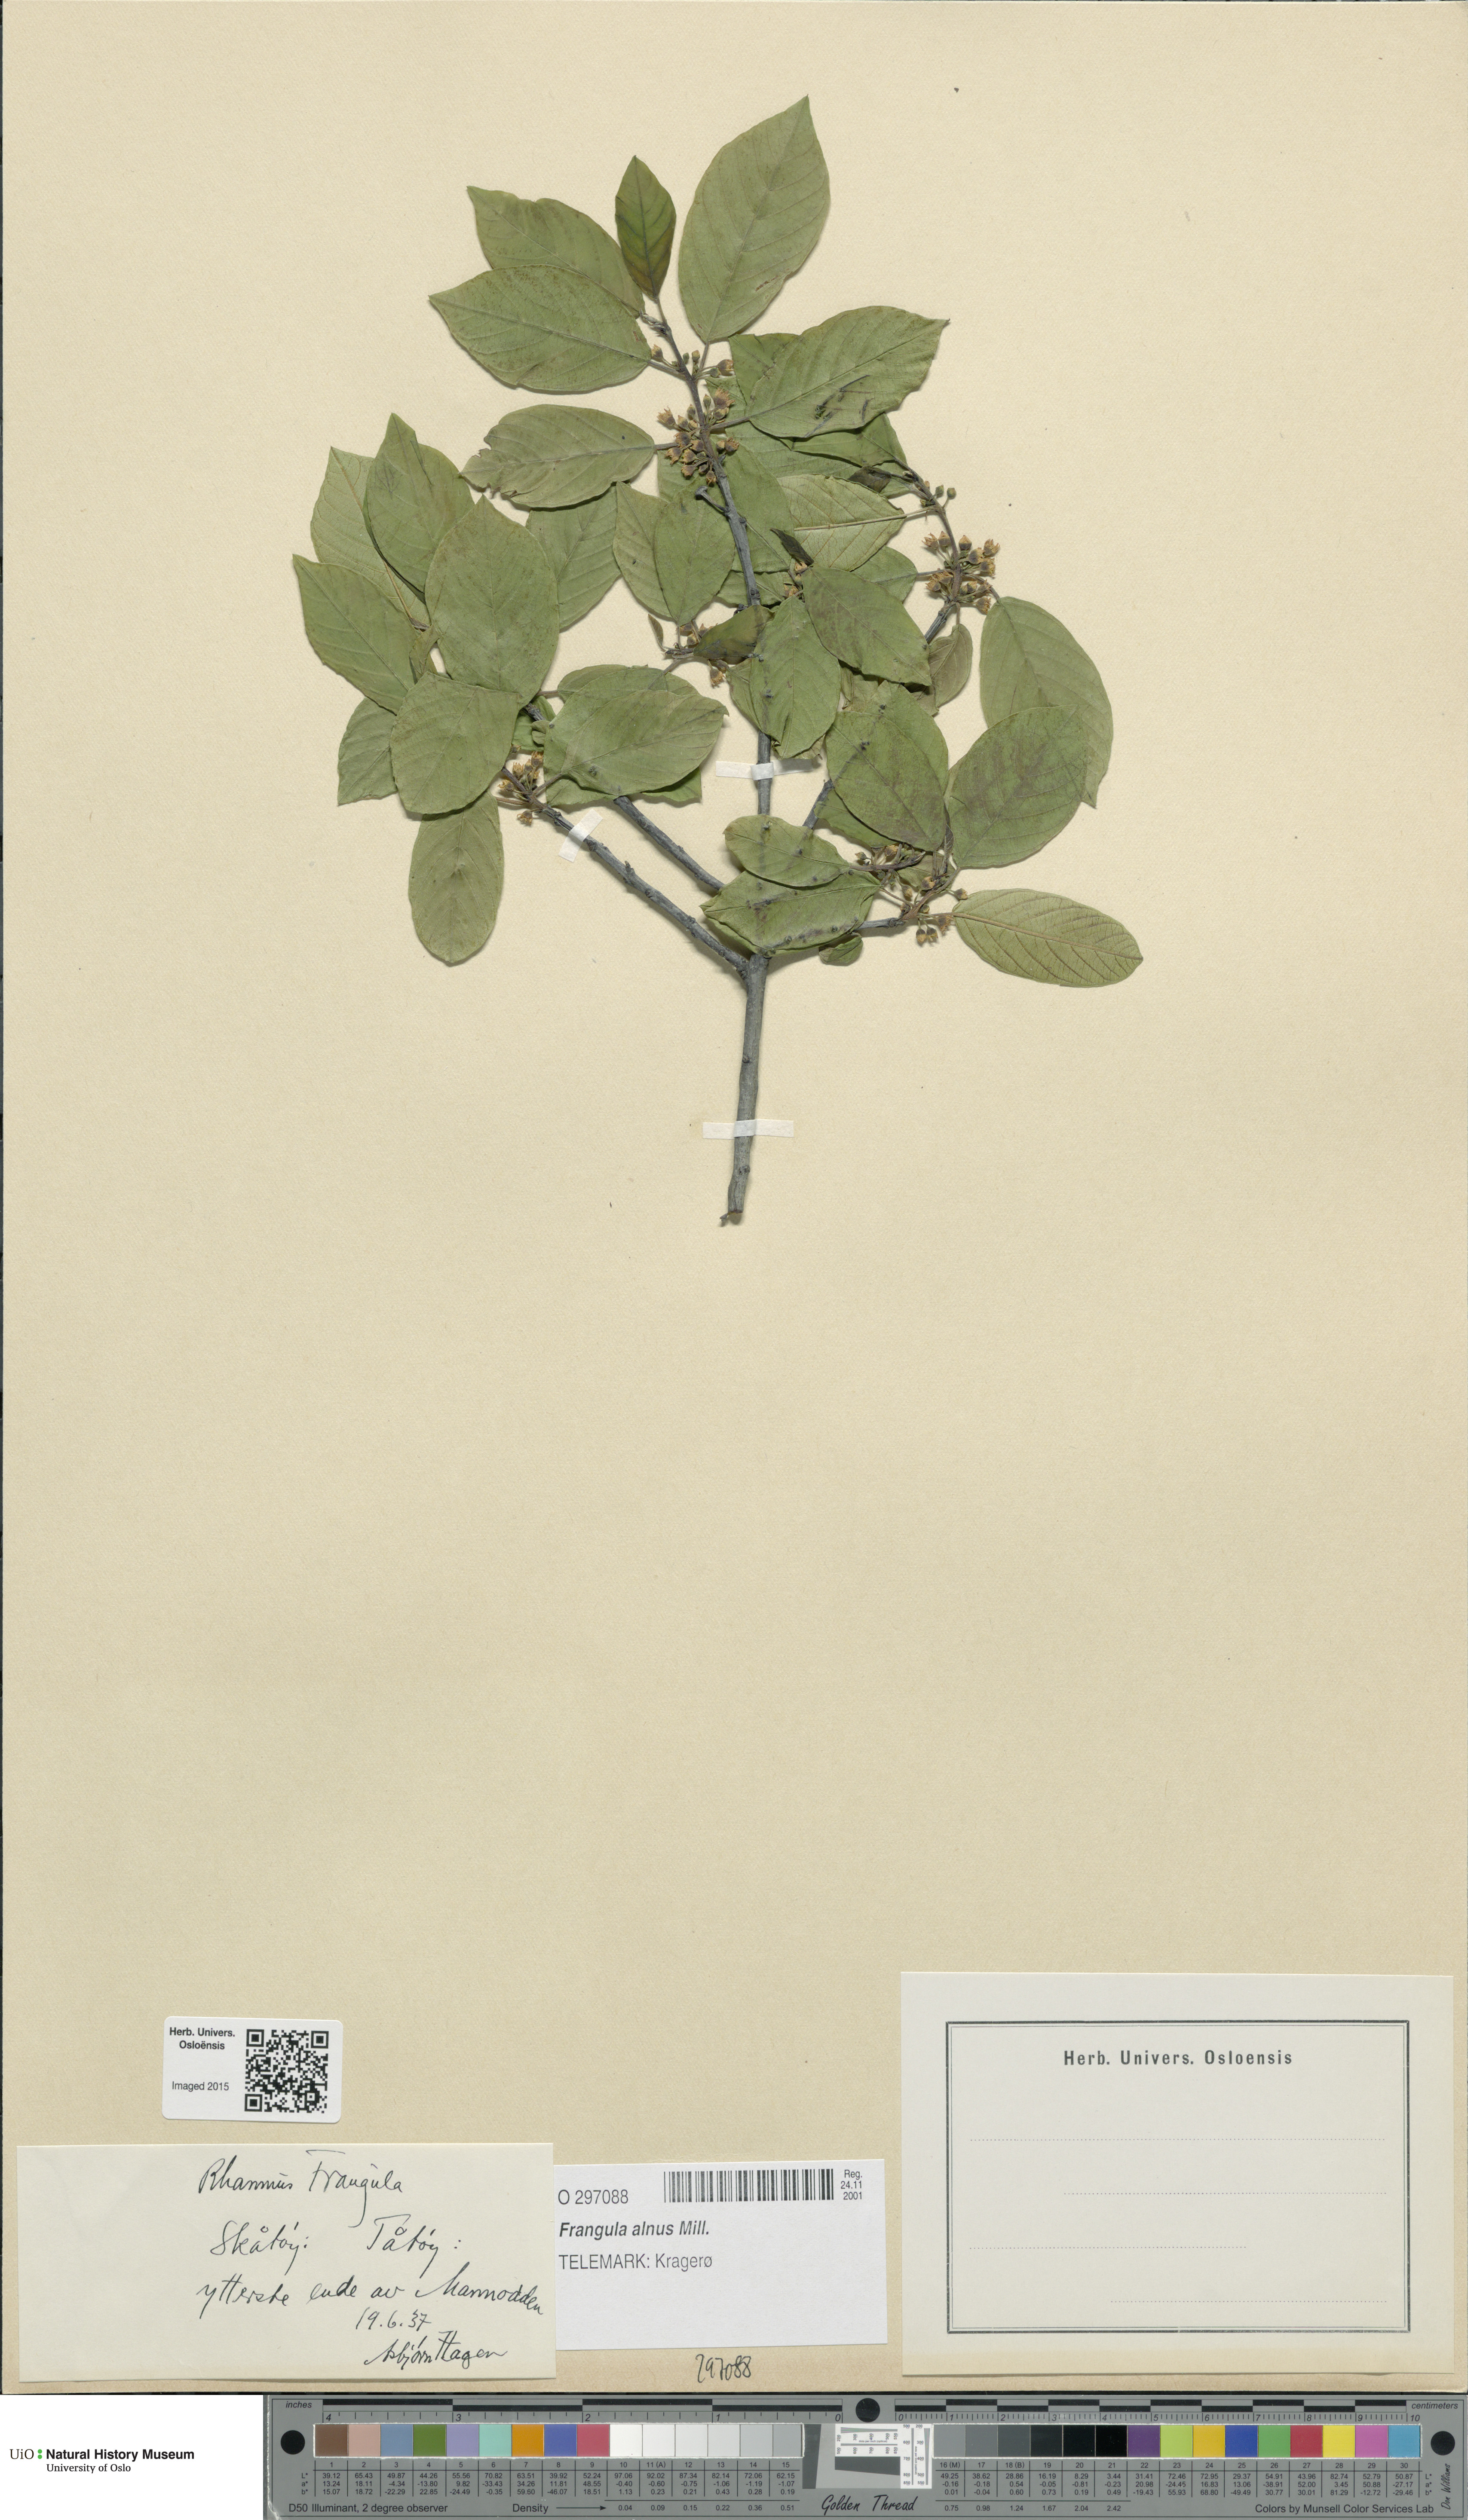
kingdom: Plantae
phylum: Tracheophyta
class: Magnoliopsida
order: Rosales
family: Rhamnaceae
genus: Frangula
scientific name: Frangula alnus
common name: Alder buckthorn
